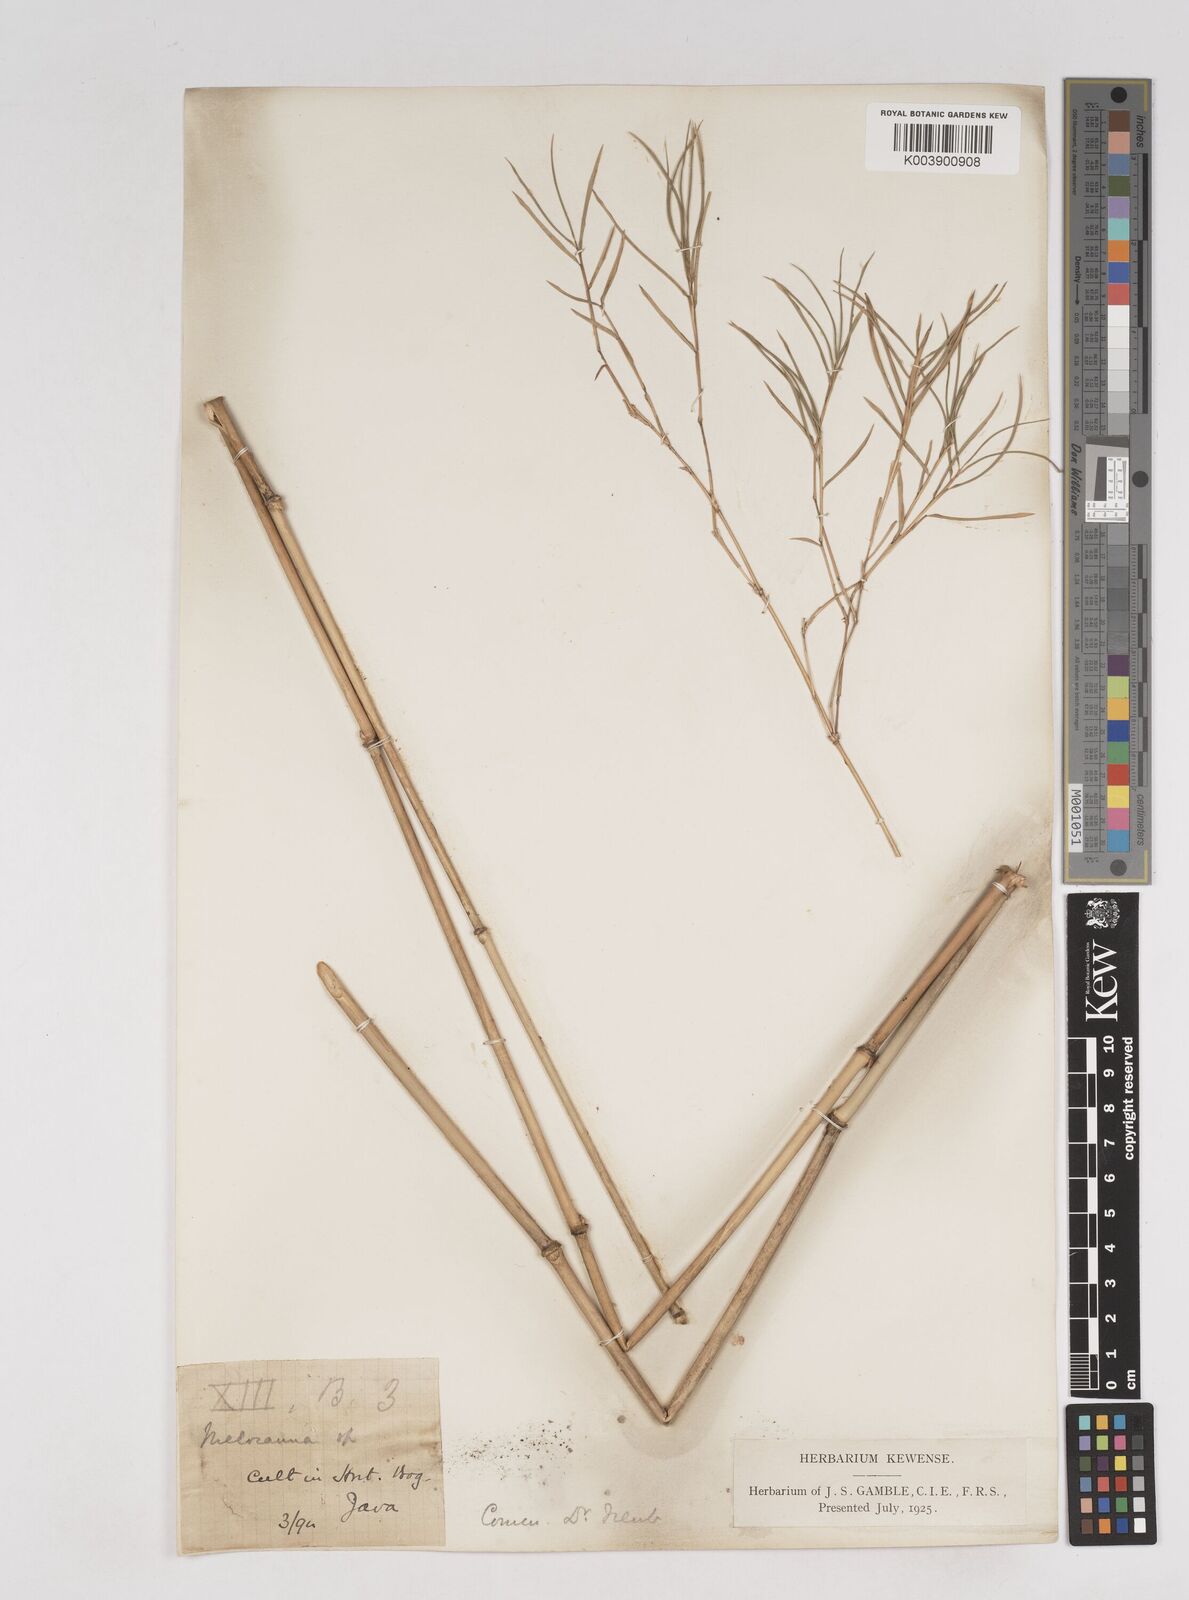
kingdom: Plantae
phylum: Tracheophyta
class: Liliopsida
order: Poales
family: Poaceae
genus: Thyrsostachys
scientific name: Thyrsostachys siamensis
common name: Thailand bamboo
